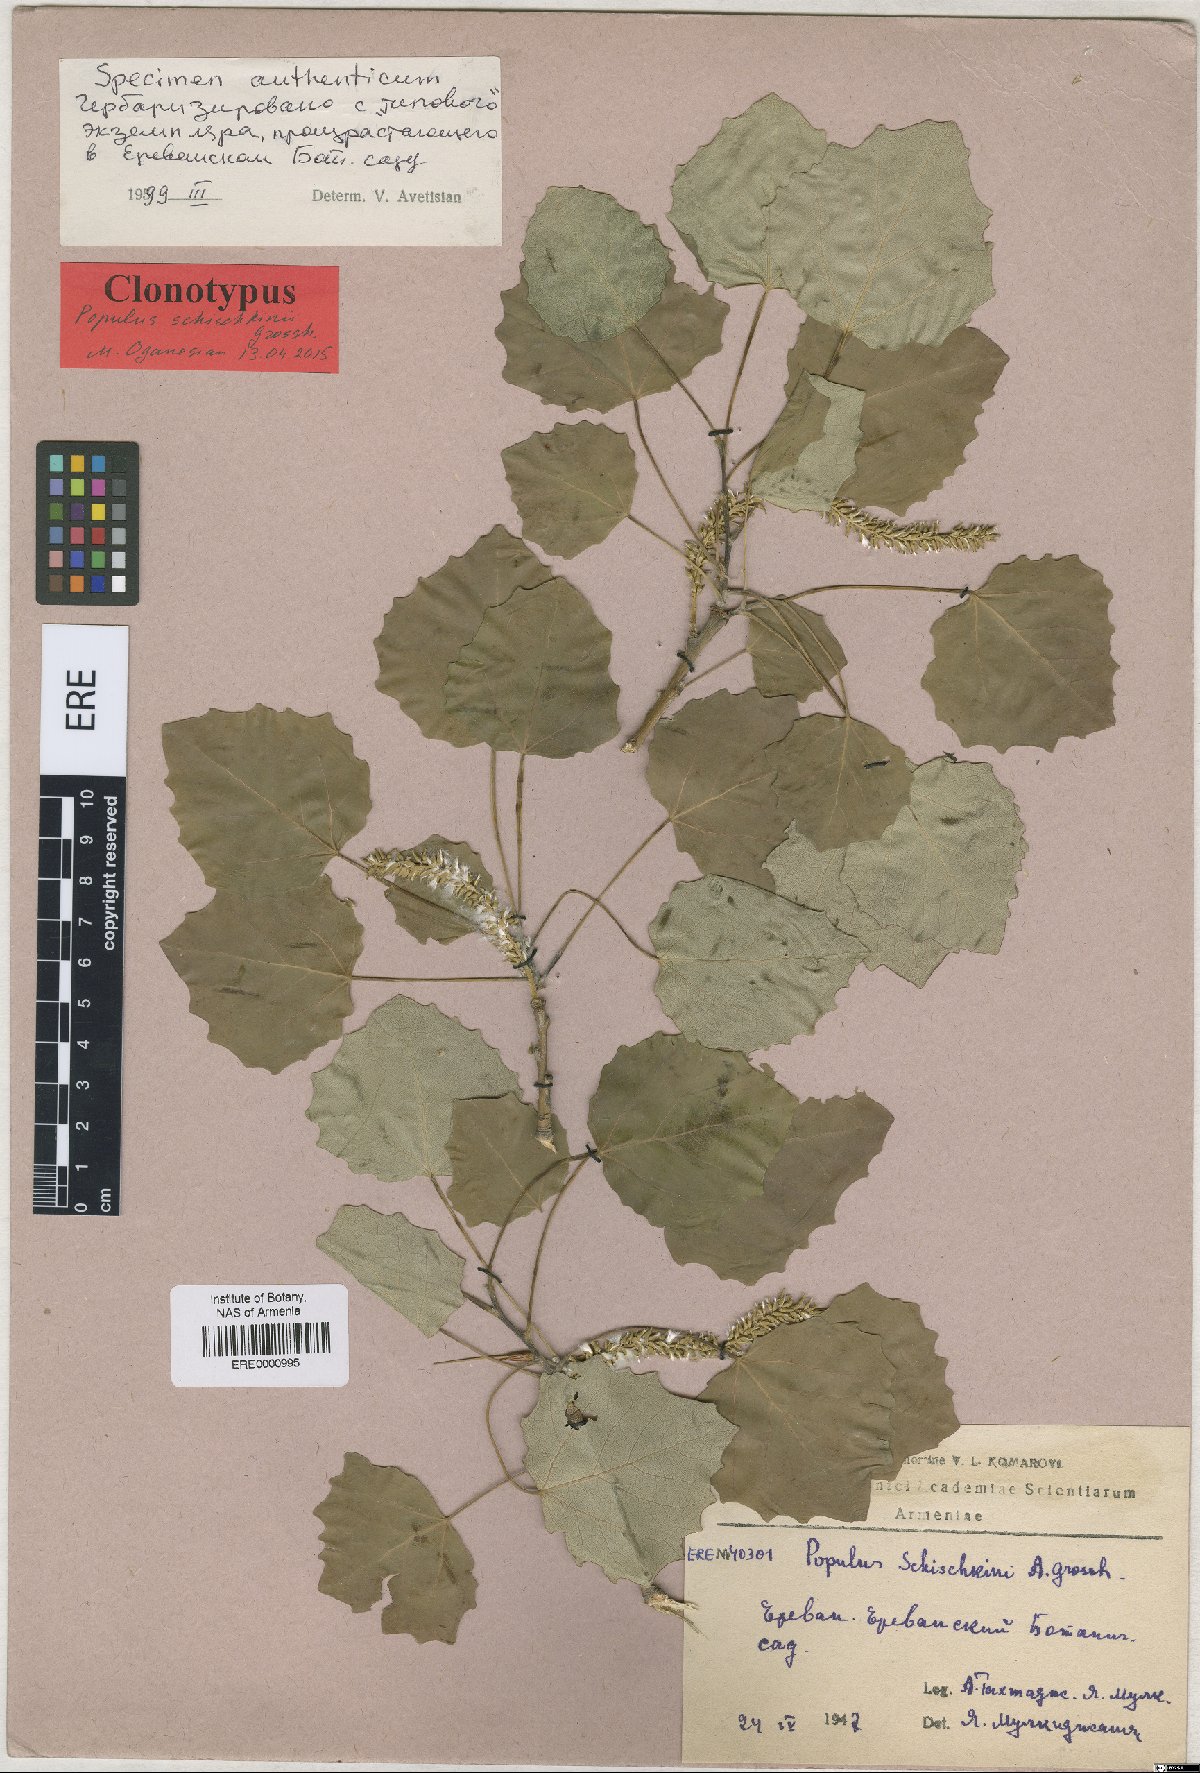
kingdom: Plantae
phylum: Tracheophyta
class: Magnoliopsida
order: Malpighiales
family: Salicaceae
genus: Populus
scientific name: Populus canescens
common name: Gray poplar
